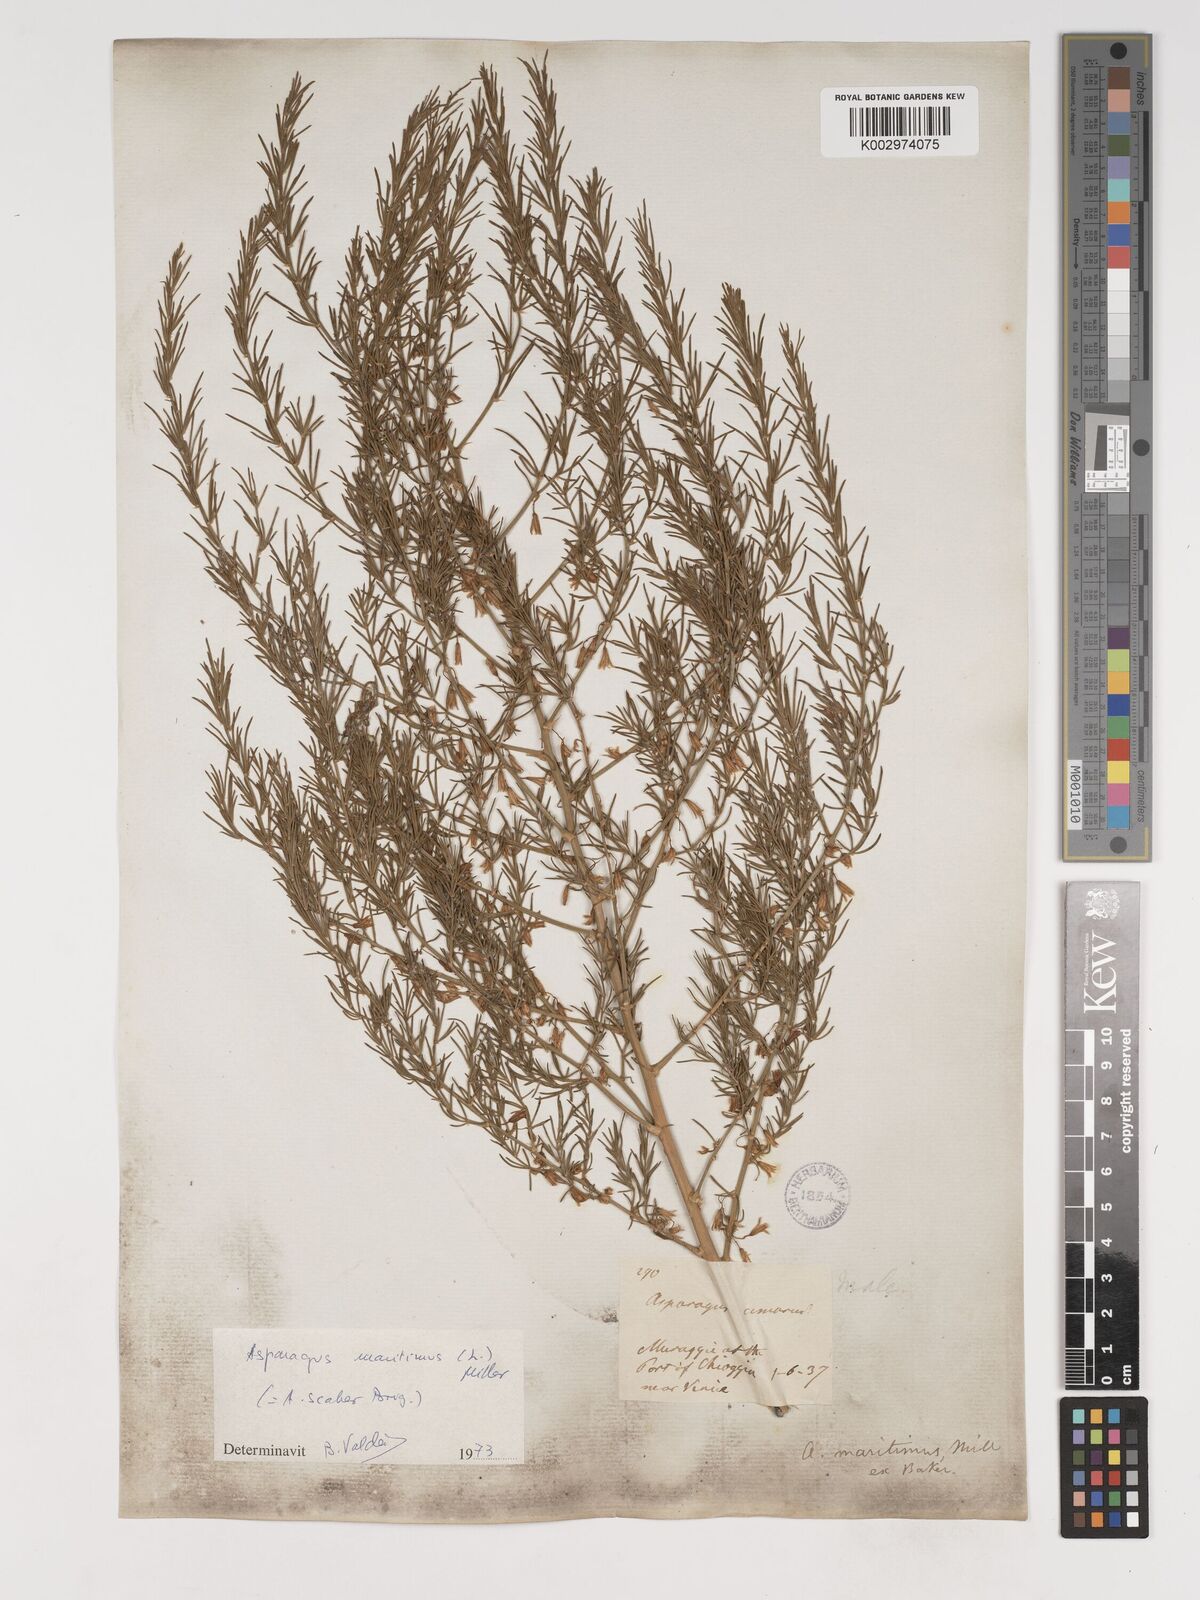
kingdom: Plantae
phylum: Tracheophyta
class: Liliopsida
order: Asparagales
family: Asparagaceae
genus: Asparagus
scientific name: Asparagus officinalis
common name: Garden asparagus
